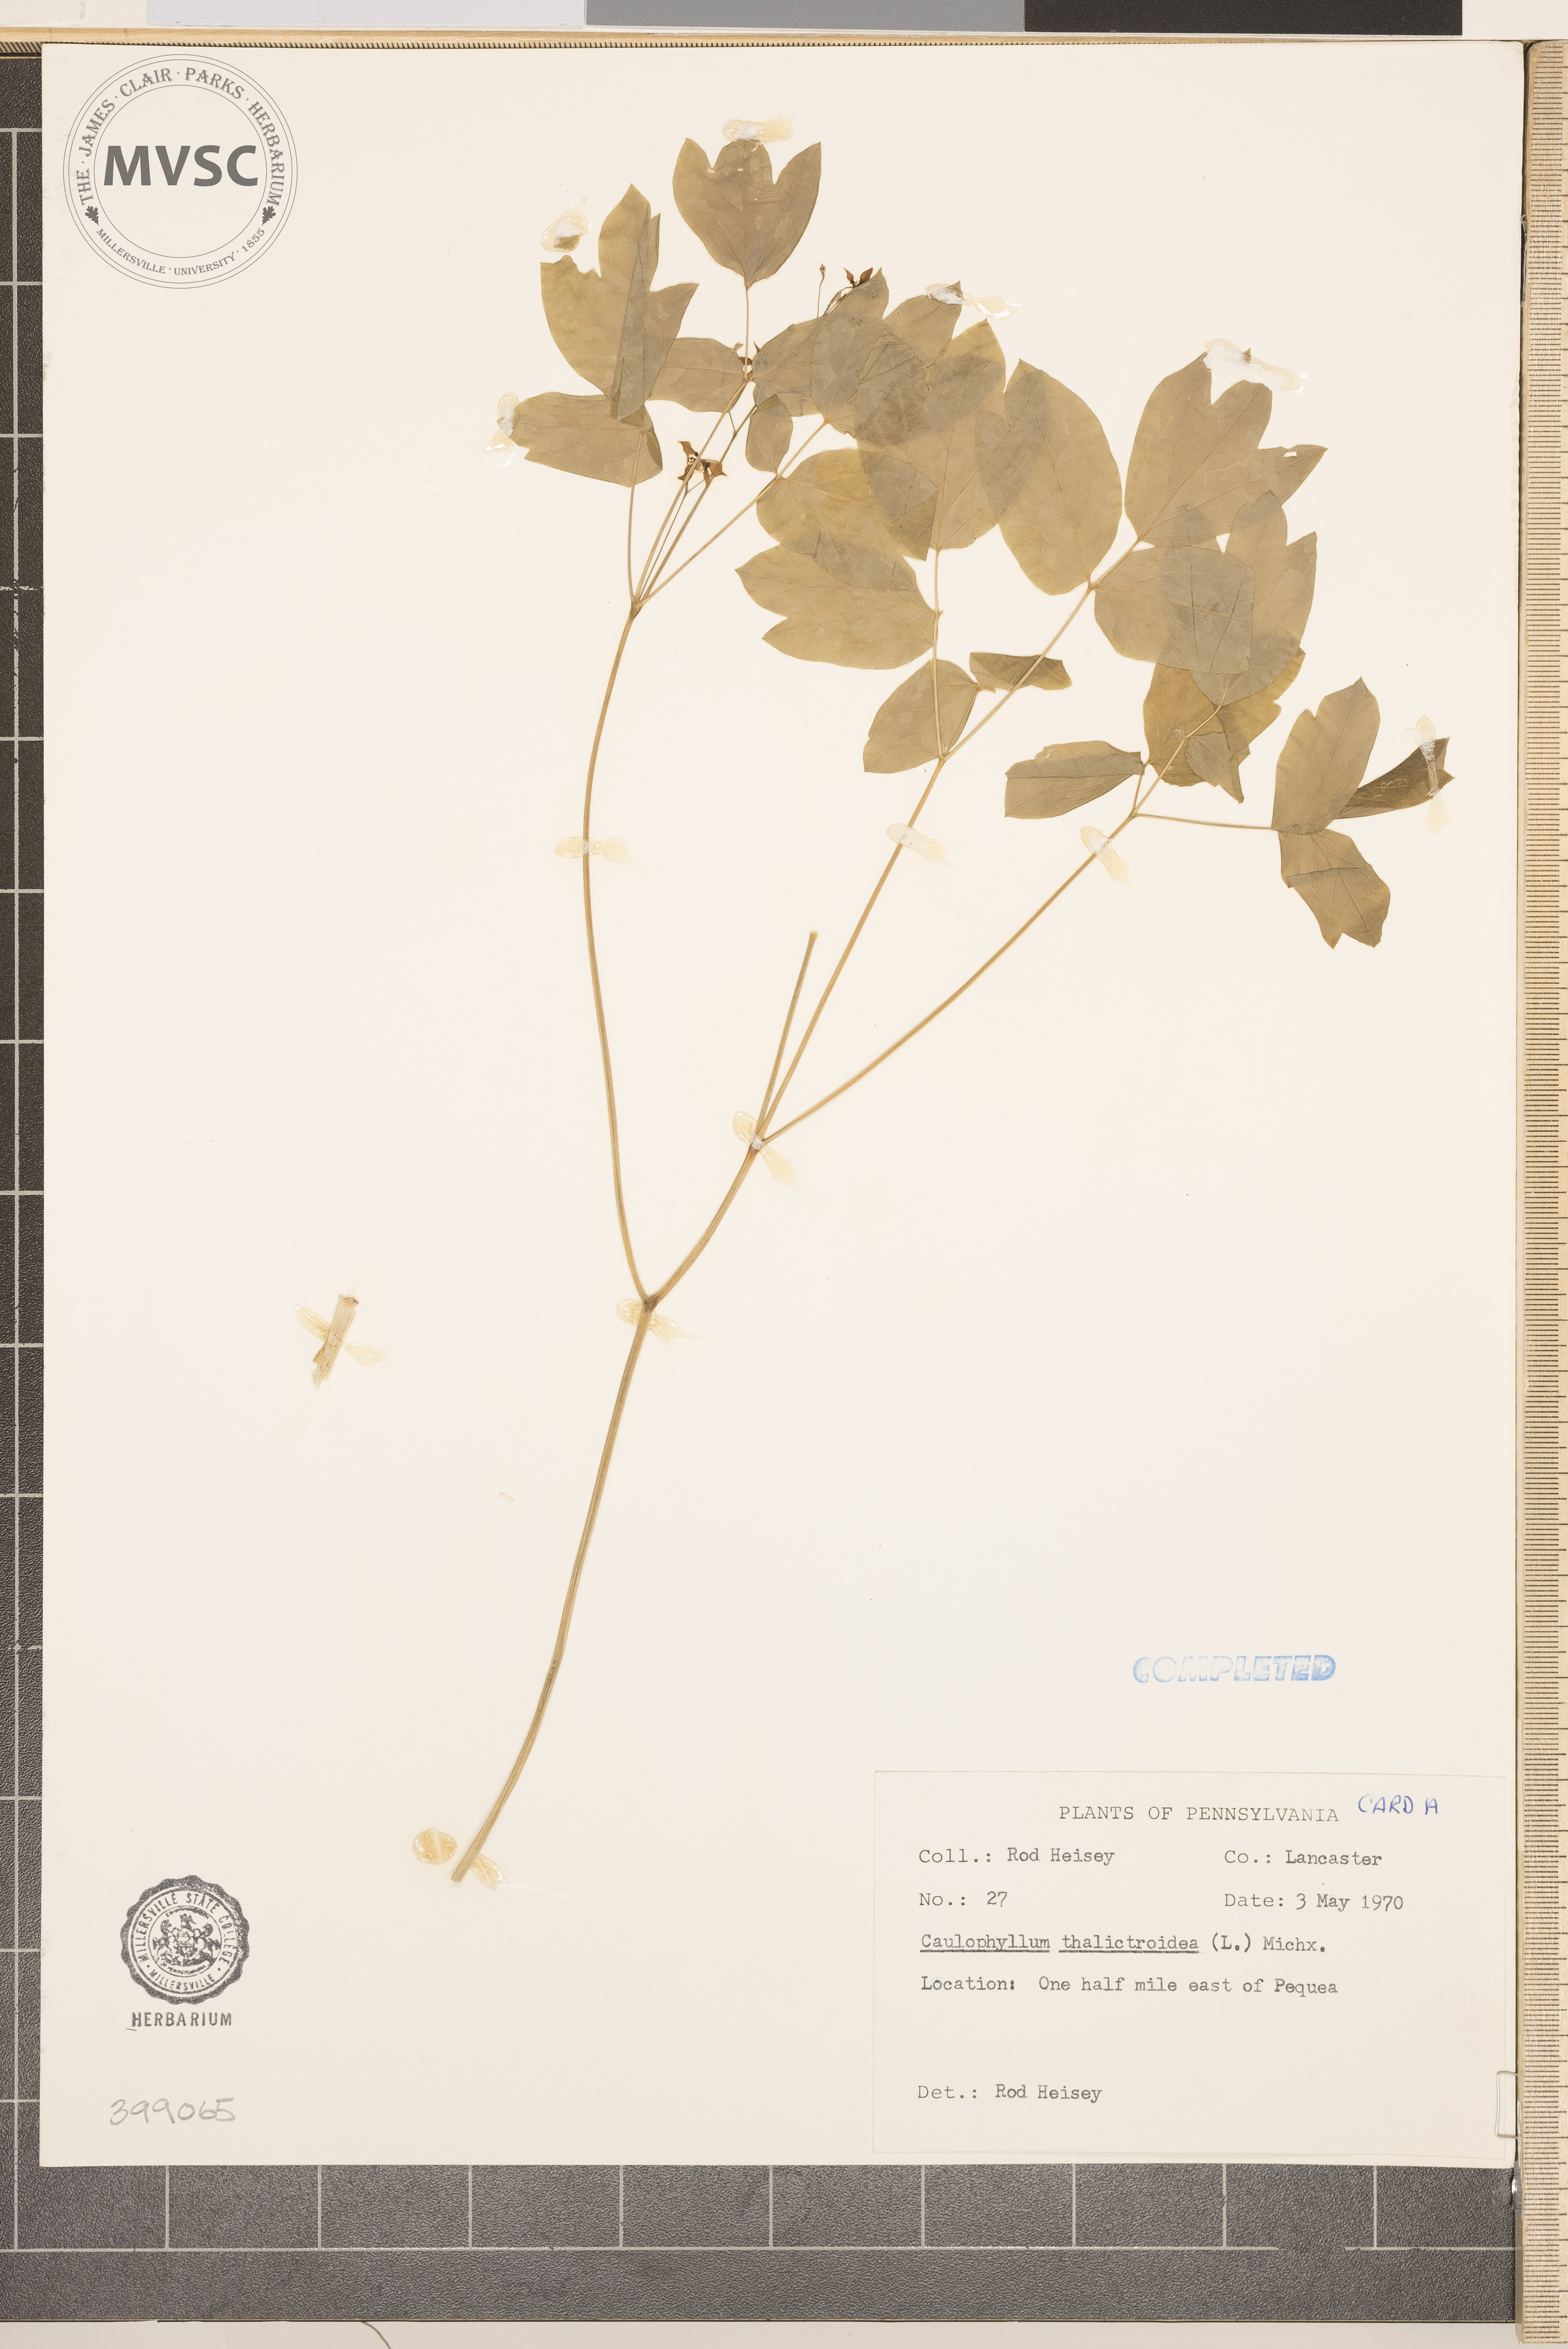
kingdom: Plantae
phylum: Tracheophyta
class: Magnoliopsida
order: Ranunculales
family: Berberidaceae
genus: Caulophyllum
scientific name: Caulophyllum thalictroides
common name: Blue cohosh
